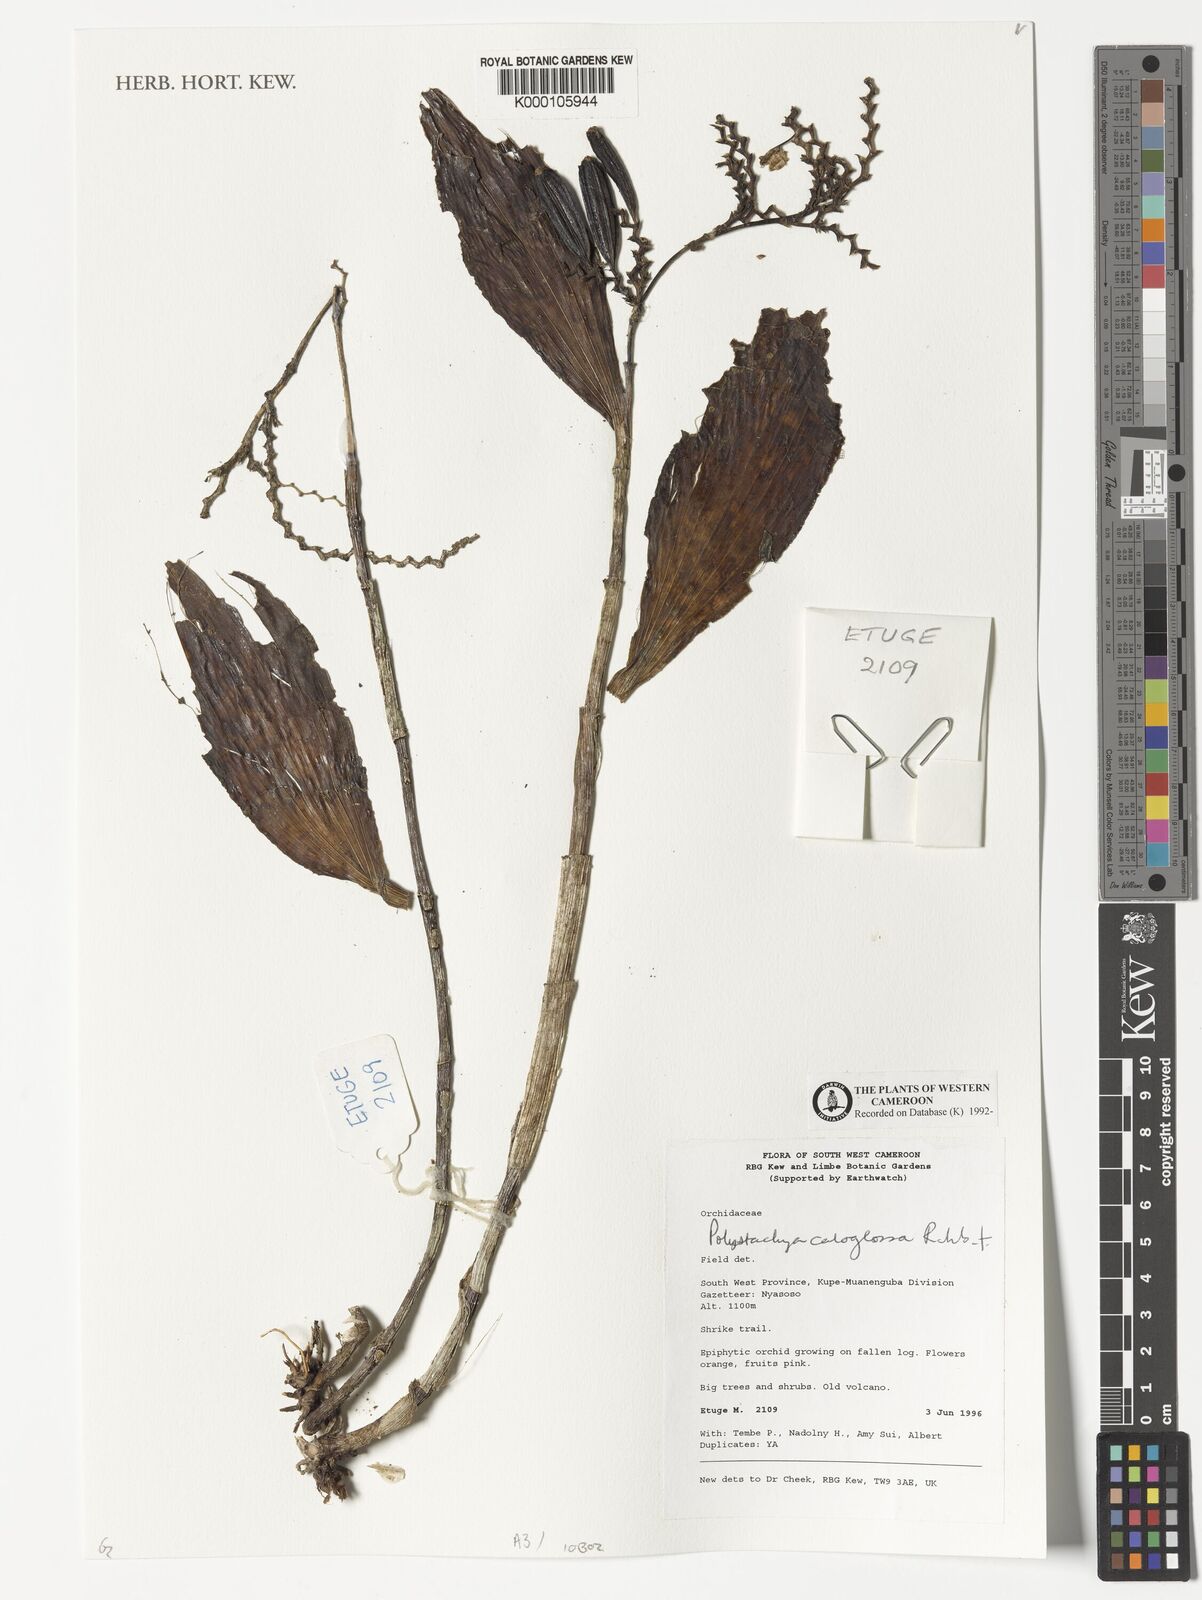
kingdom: Plantae
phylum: Tracheophyta
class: Liliopsida
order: Asparagales
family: Orchidaceae
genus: Polystachya
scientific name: Polystachya caloglossa
